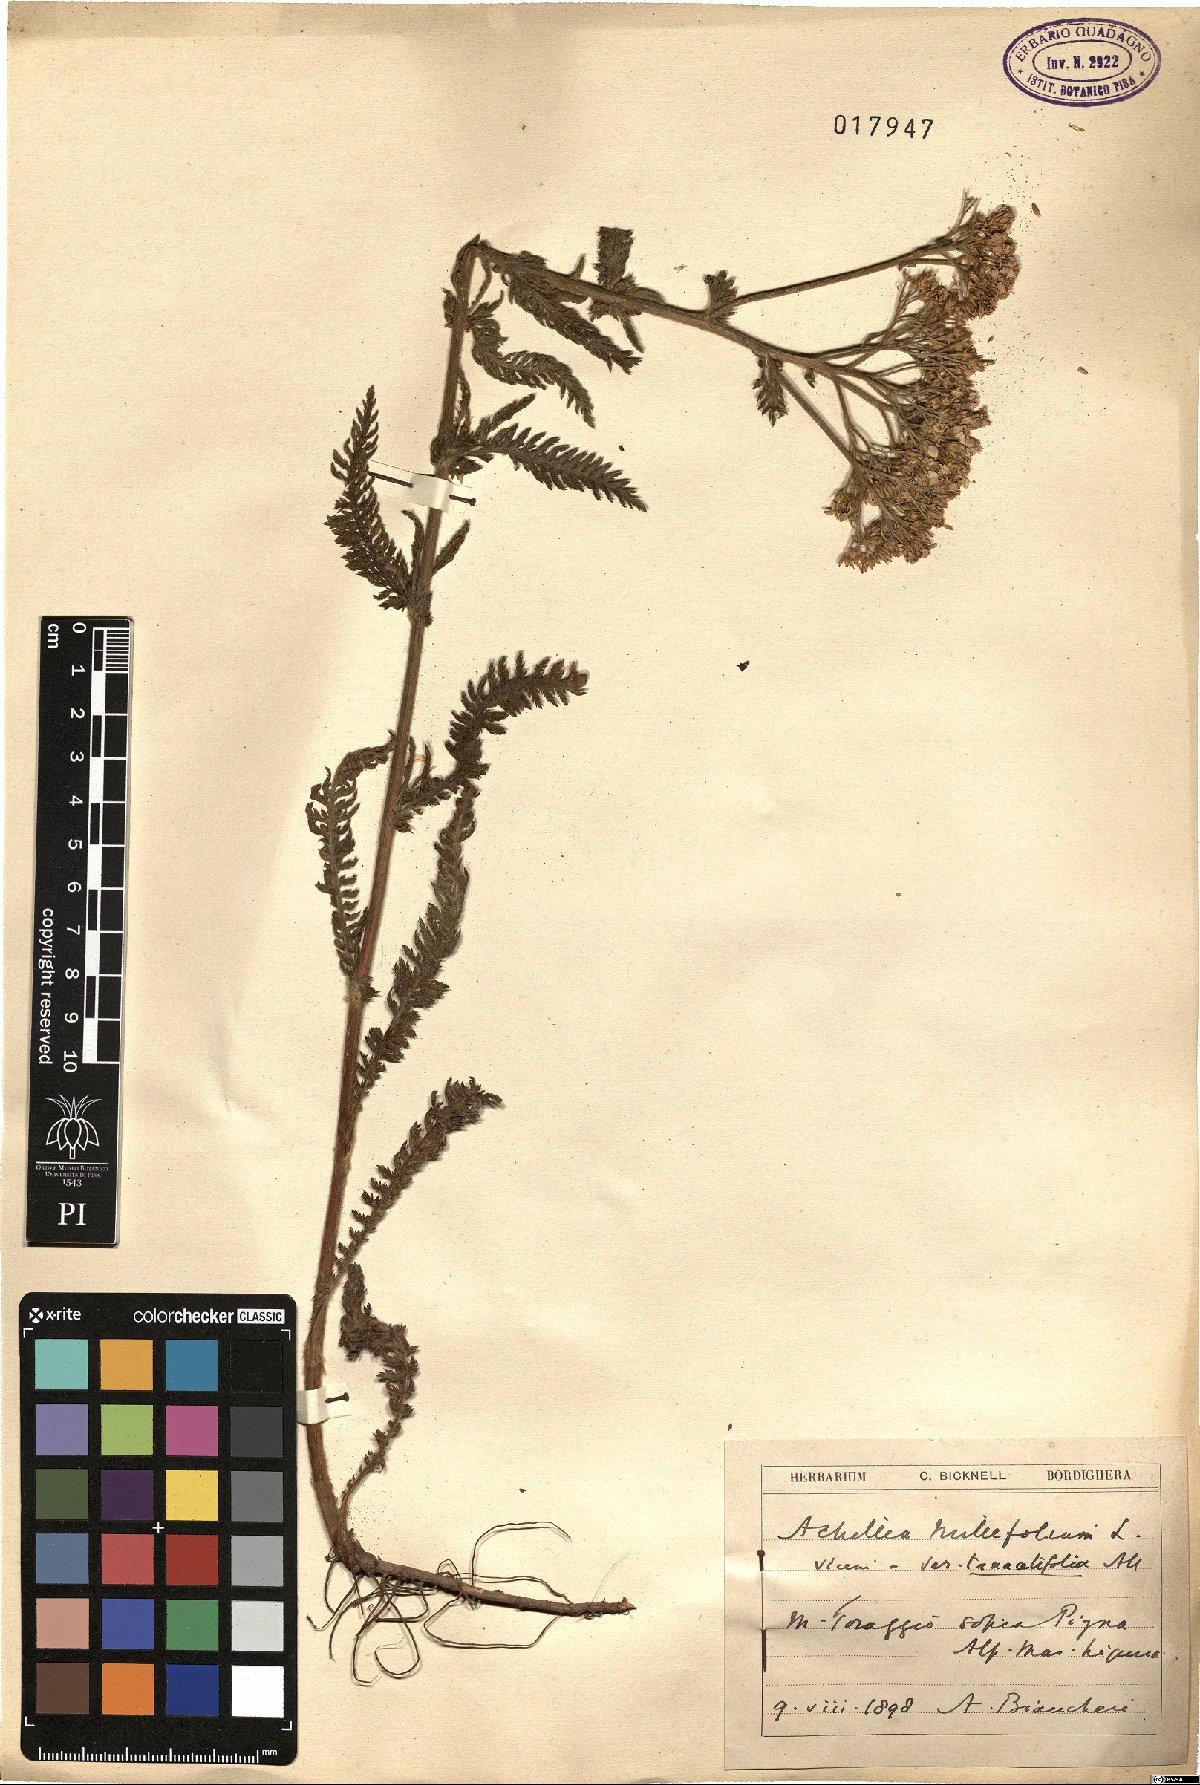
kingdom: Plantae
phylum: Tracheophyta
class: Magnoliopsida
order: Asterales
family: Asteraceae
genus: Achillea
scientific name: Achillea millefolium
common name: Yarrow
